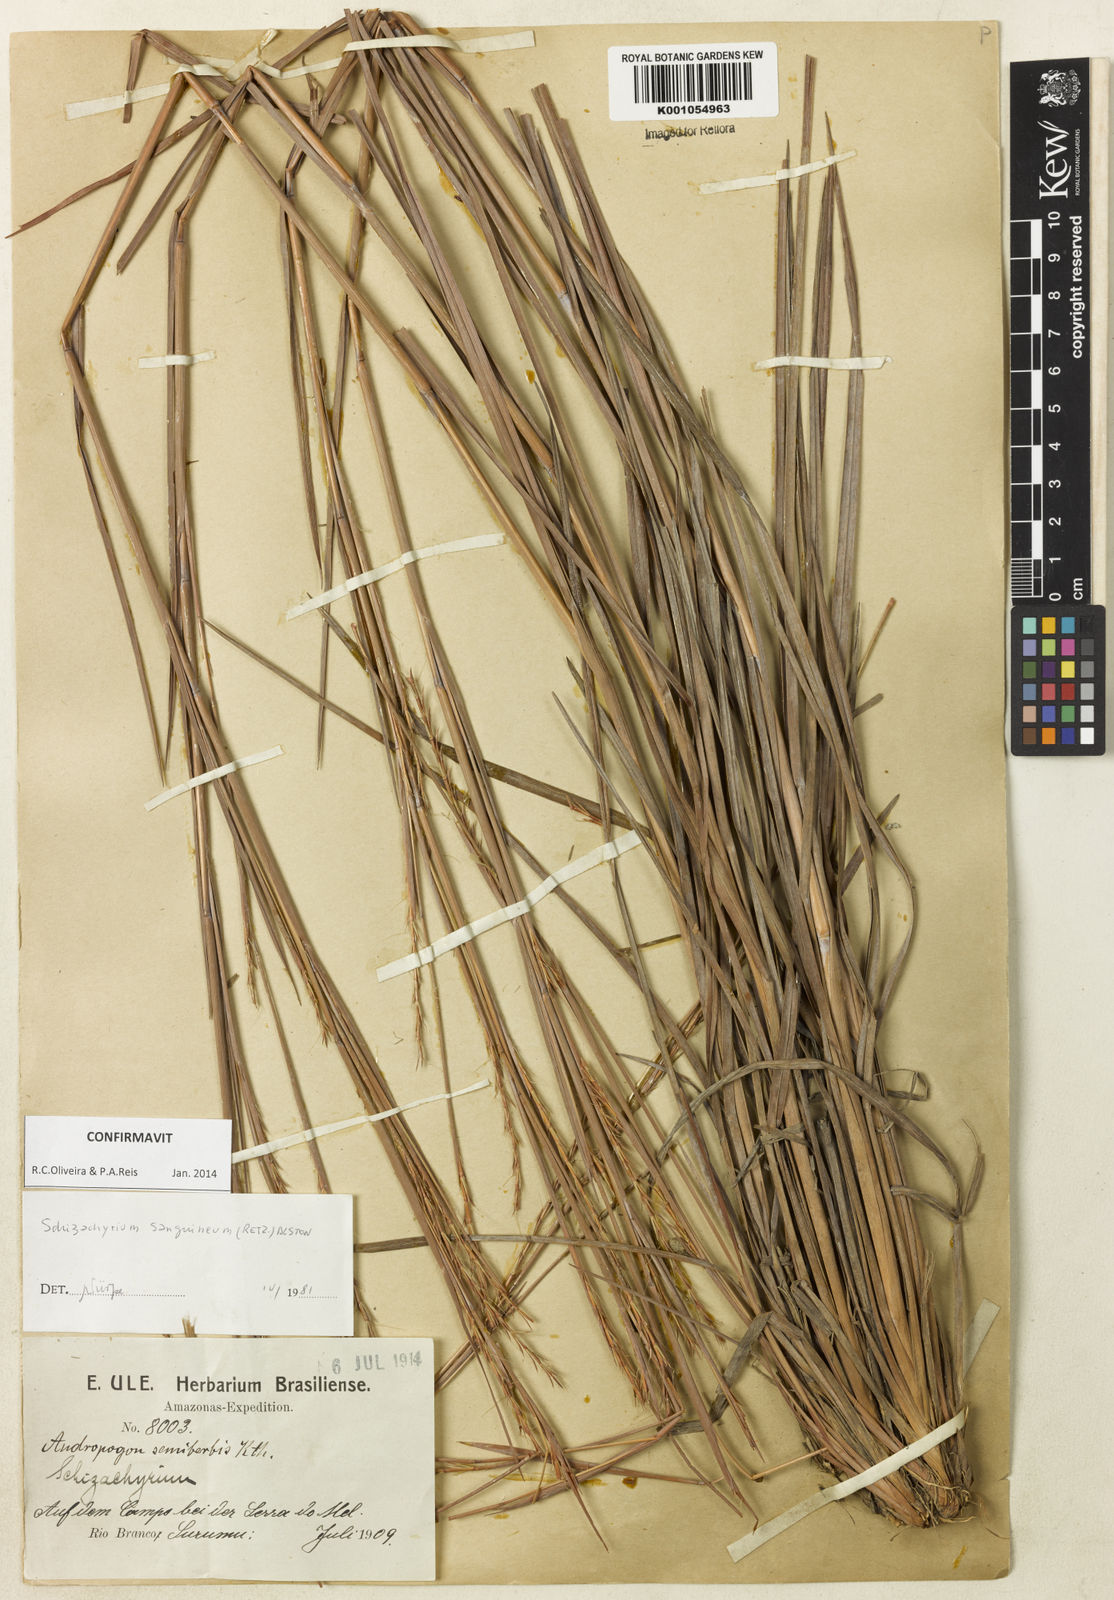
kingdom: Plantae
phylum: Tracheophyta
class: Liliopsida
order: Poales
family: Poaceae
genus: Schizachyrium
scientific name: Schizachyrium sanguineum
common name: Crimson bluestem
